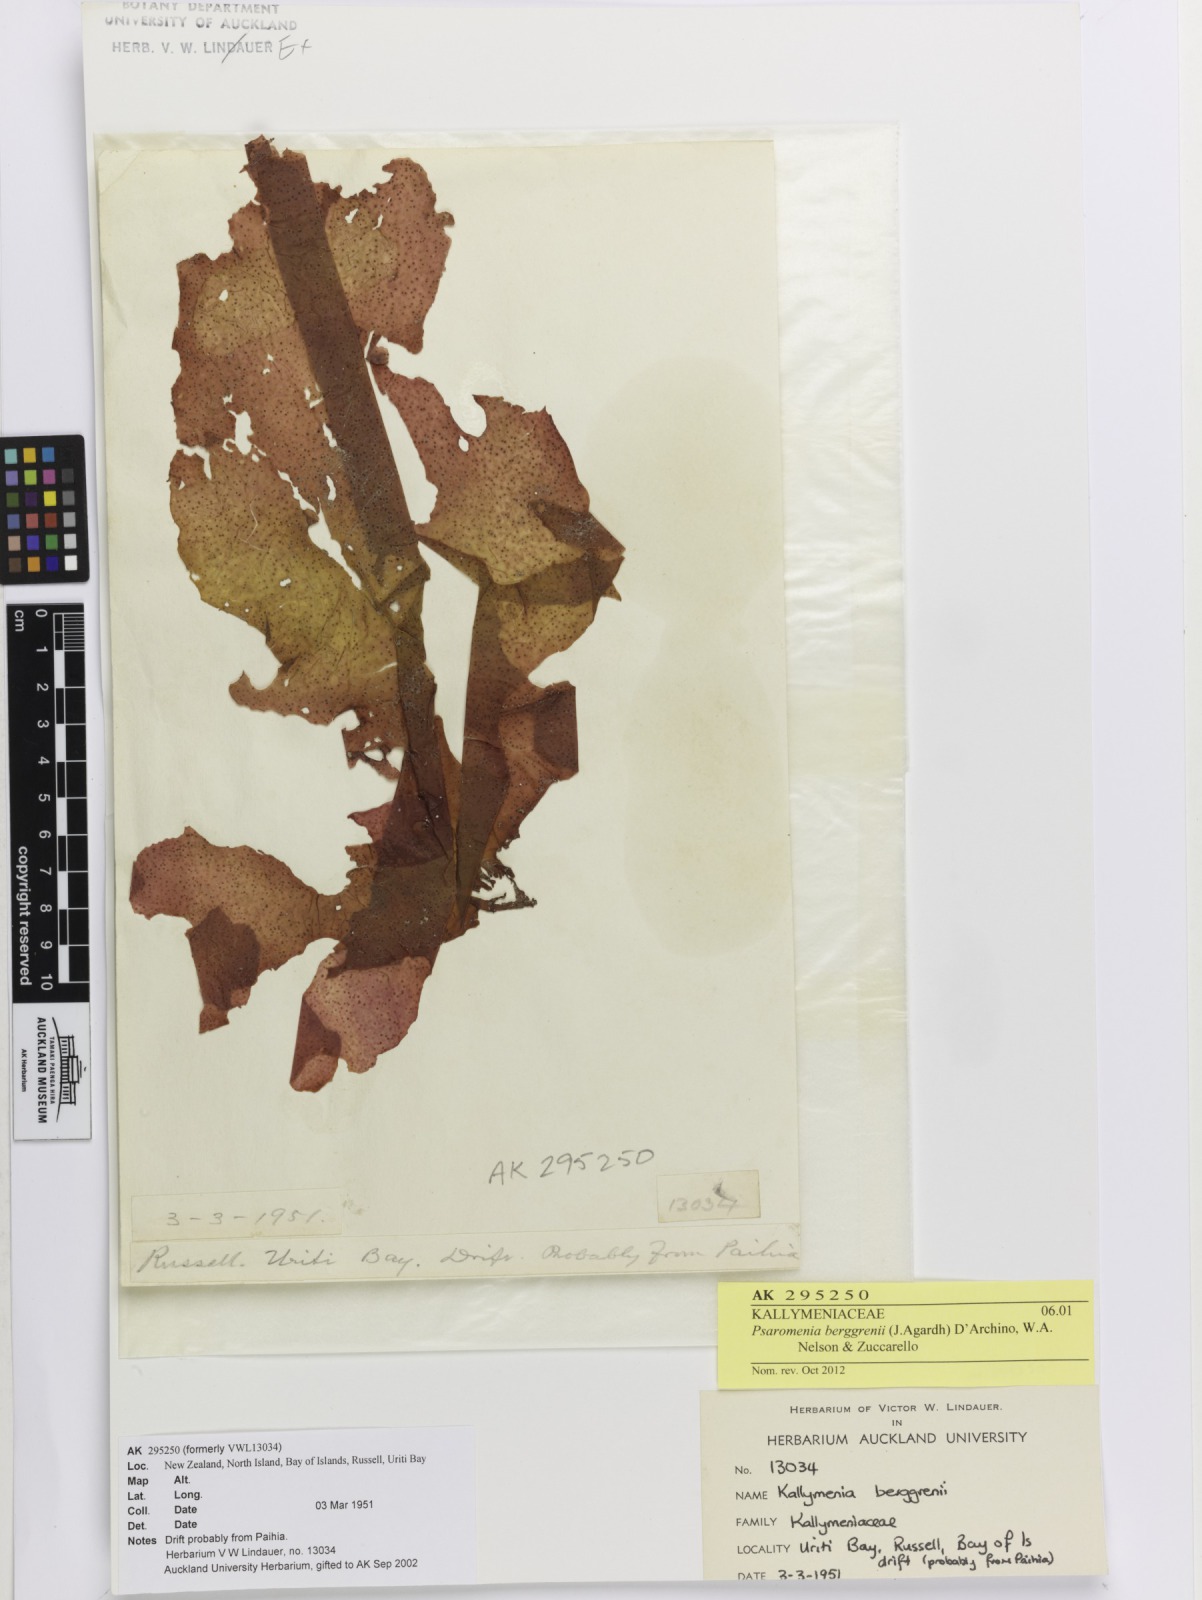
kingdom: Plantae
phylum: Rhodophyta
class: Florideophyceae
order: Gigartinales
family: Kallymeniaceae
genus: Psaromenia
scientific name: Psaromenia berggrenii
